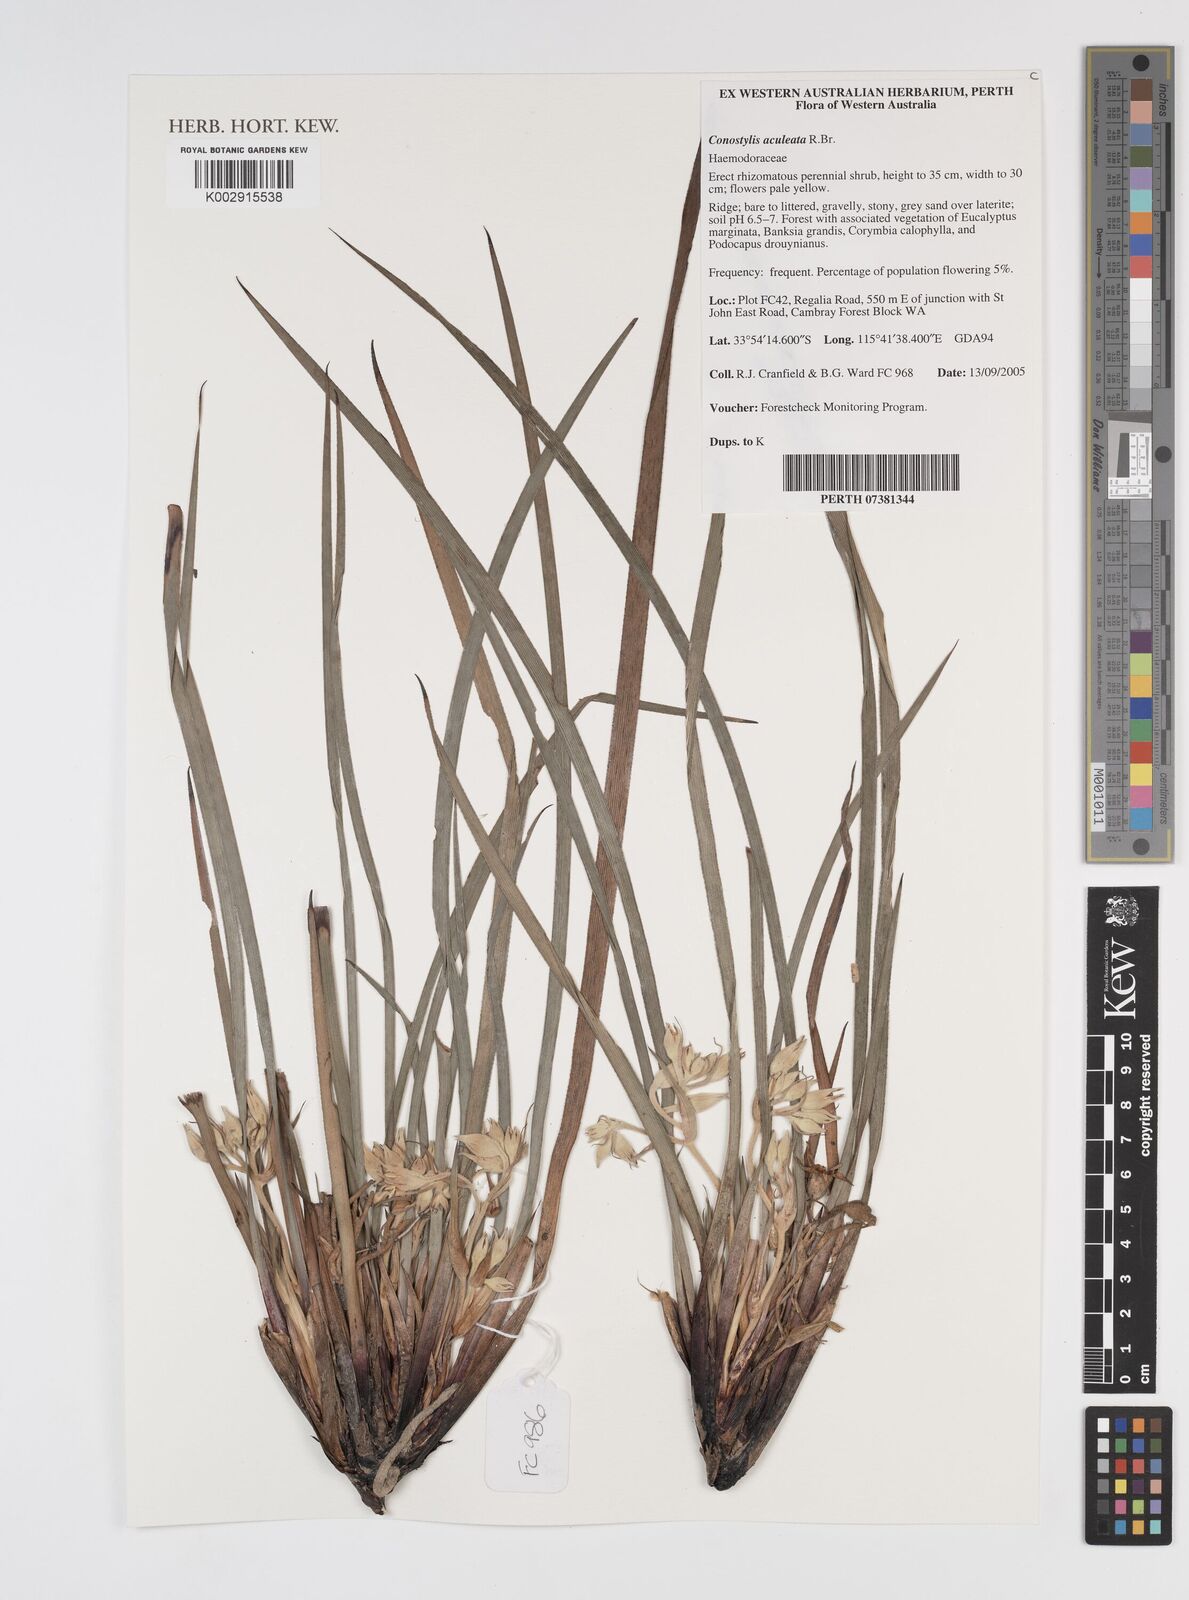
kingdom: Plantae
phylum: Tracheophyta
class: Liliopsida
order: Commelinales
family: Haemodoraceae
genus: Conostylis
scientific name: Conostylis aculeata
